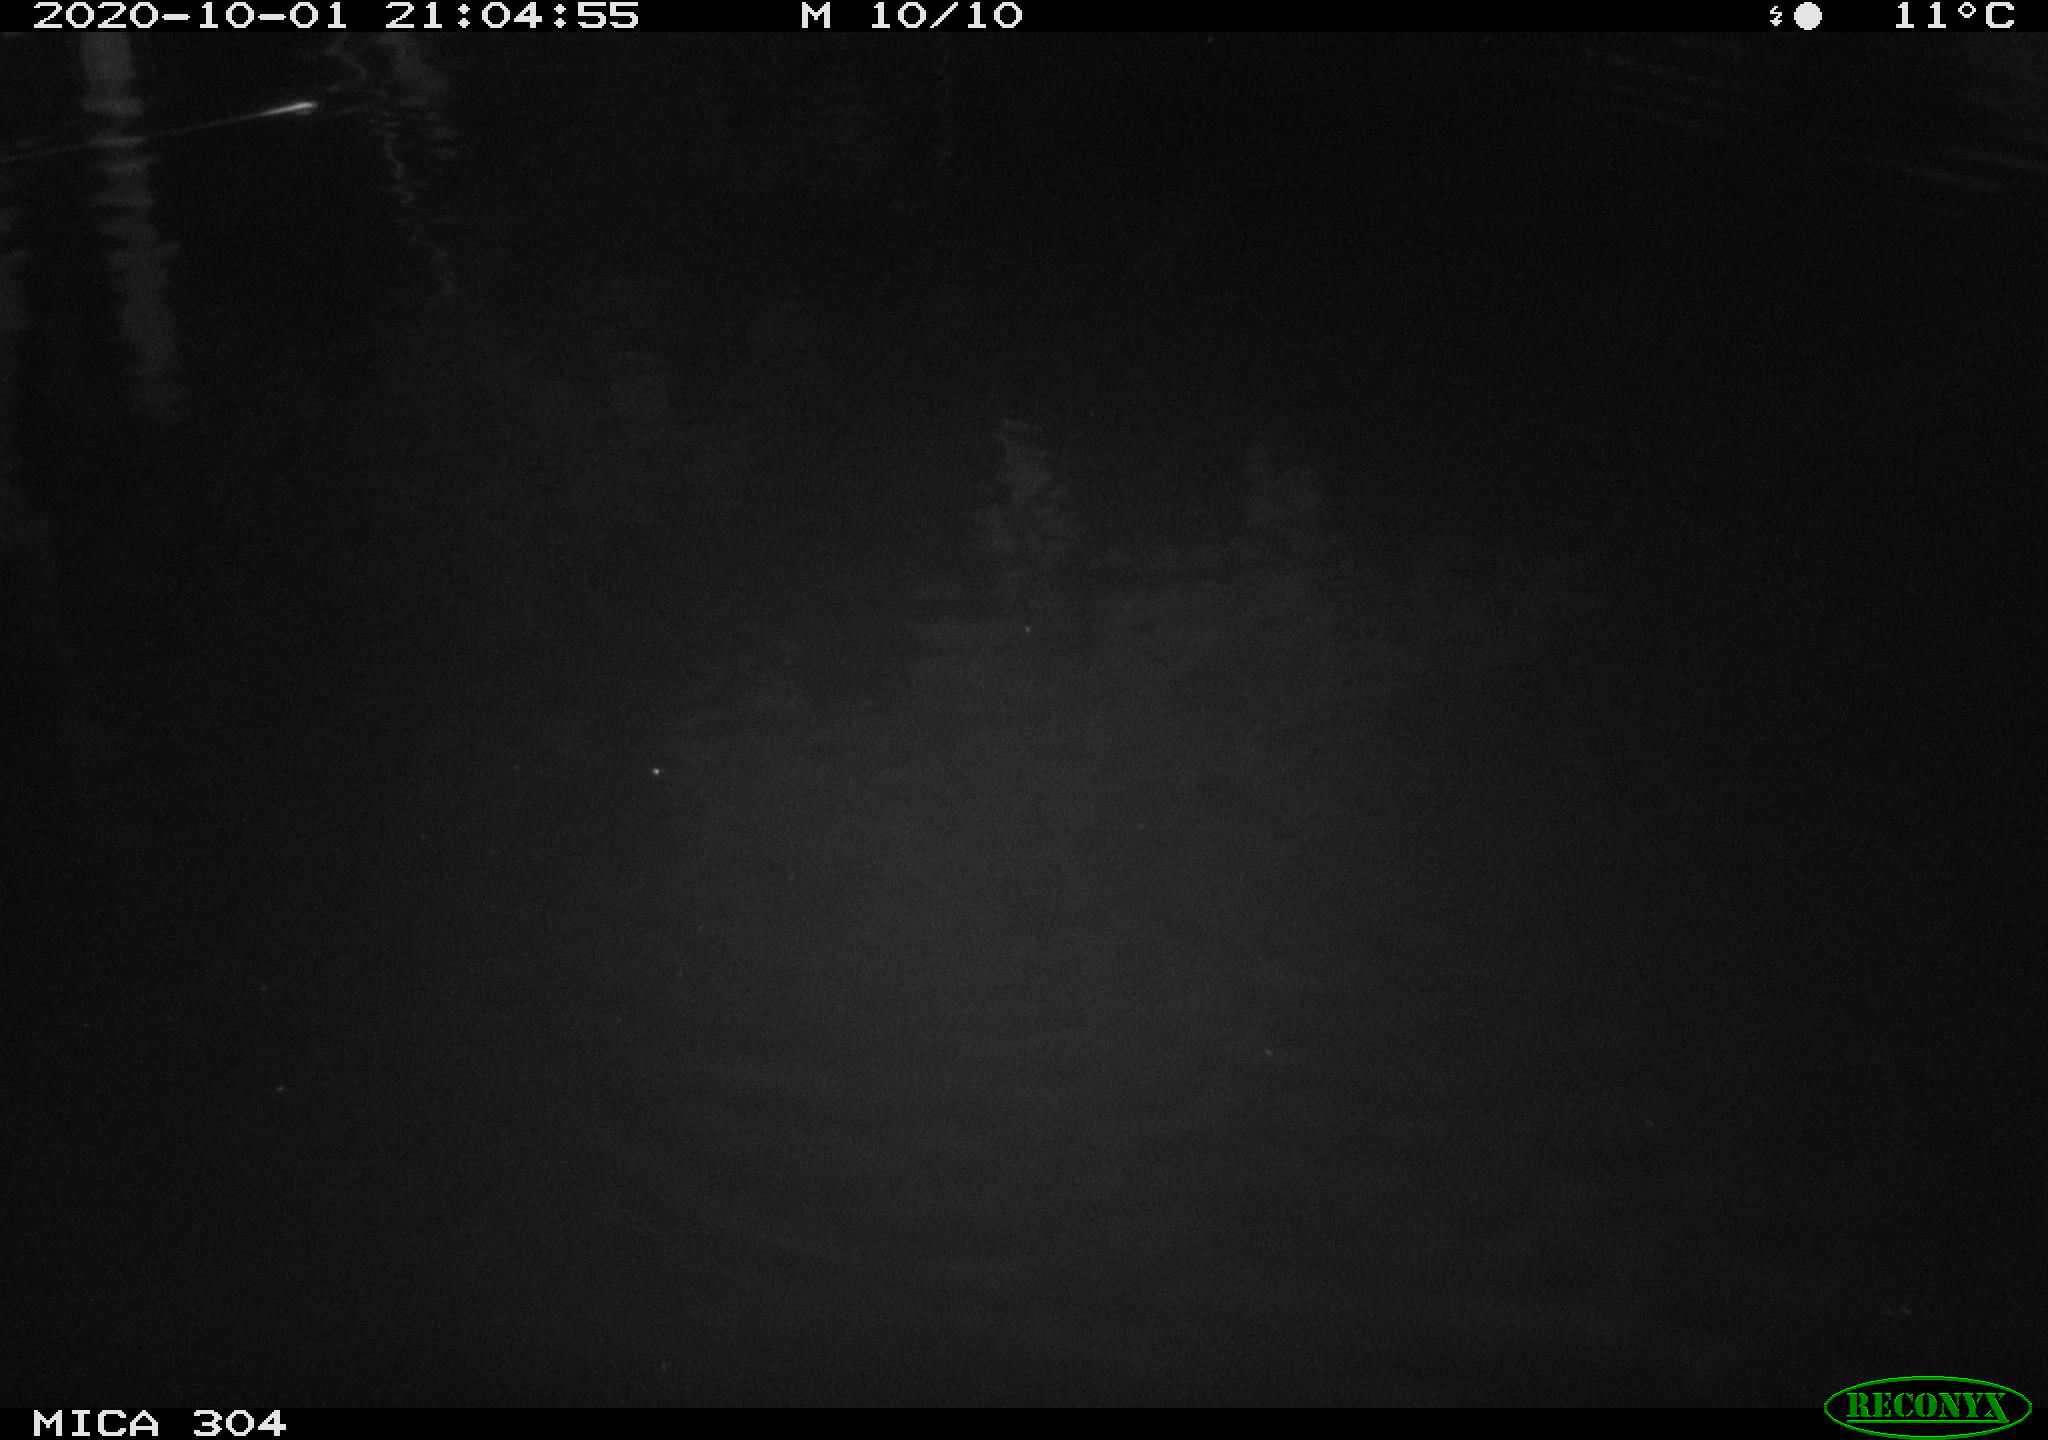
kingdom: Animalia
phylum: Chordata
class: Mammalia
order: Rodentia
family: Muridae
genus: Rattus
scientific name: Rattus norvegicus
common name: Brown rat
